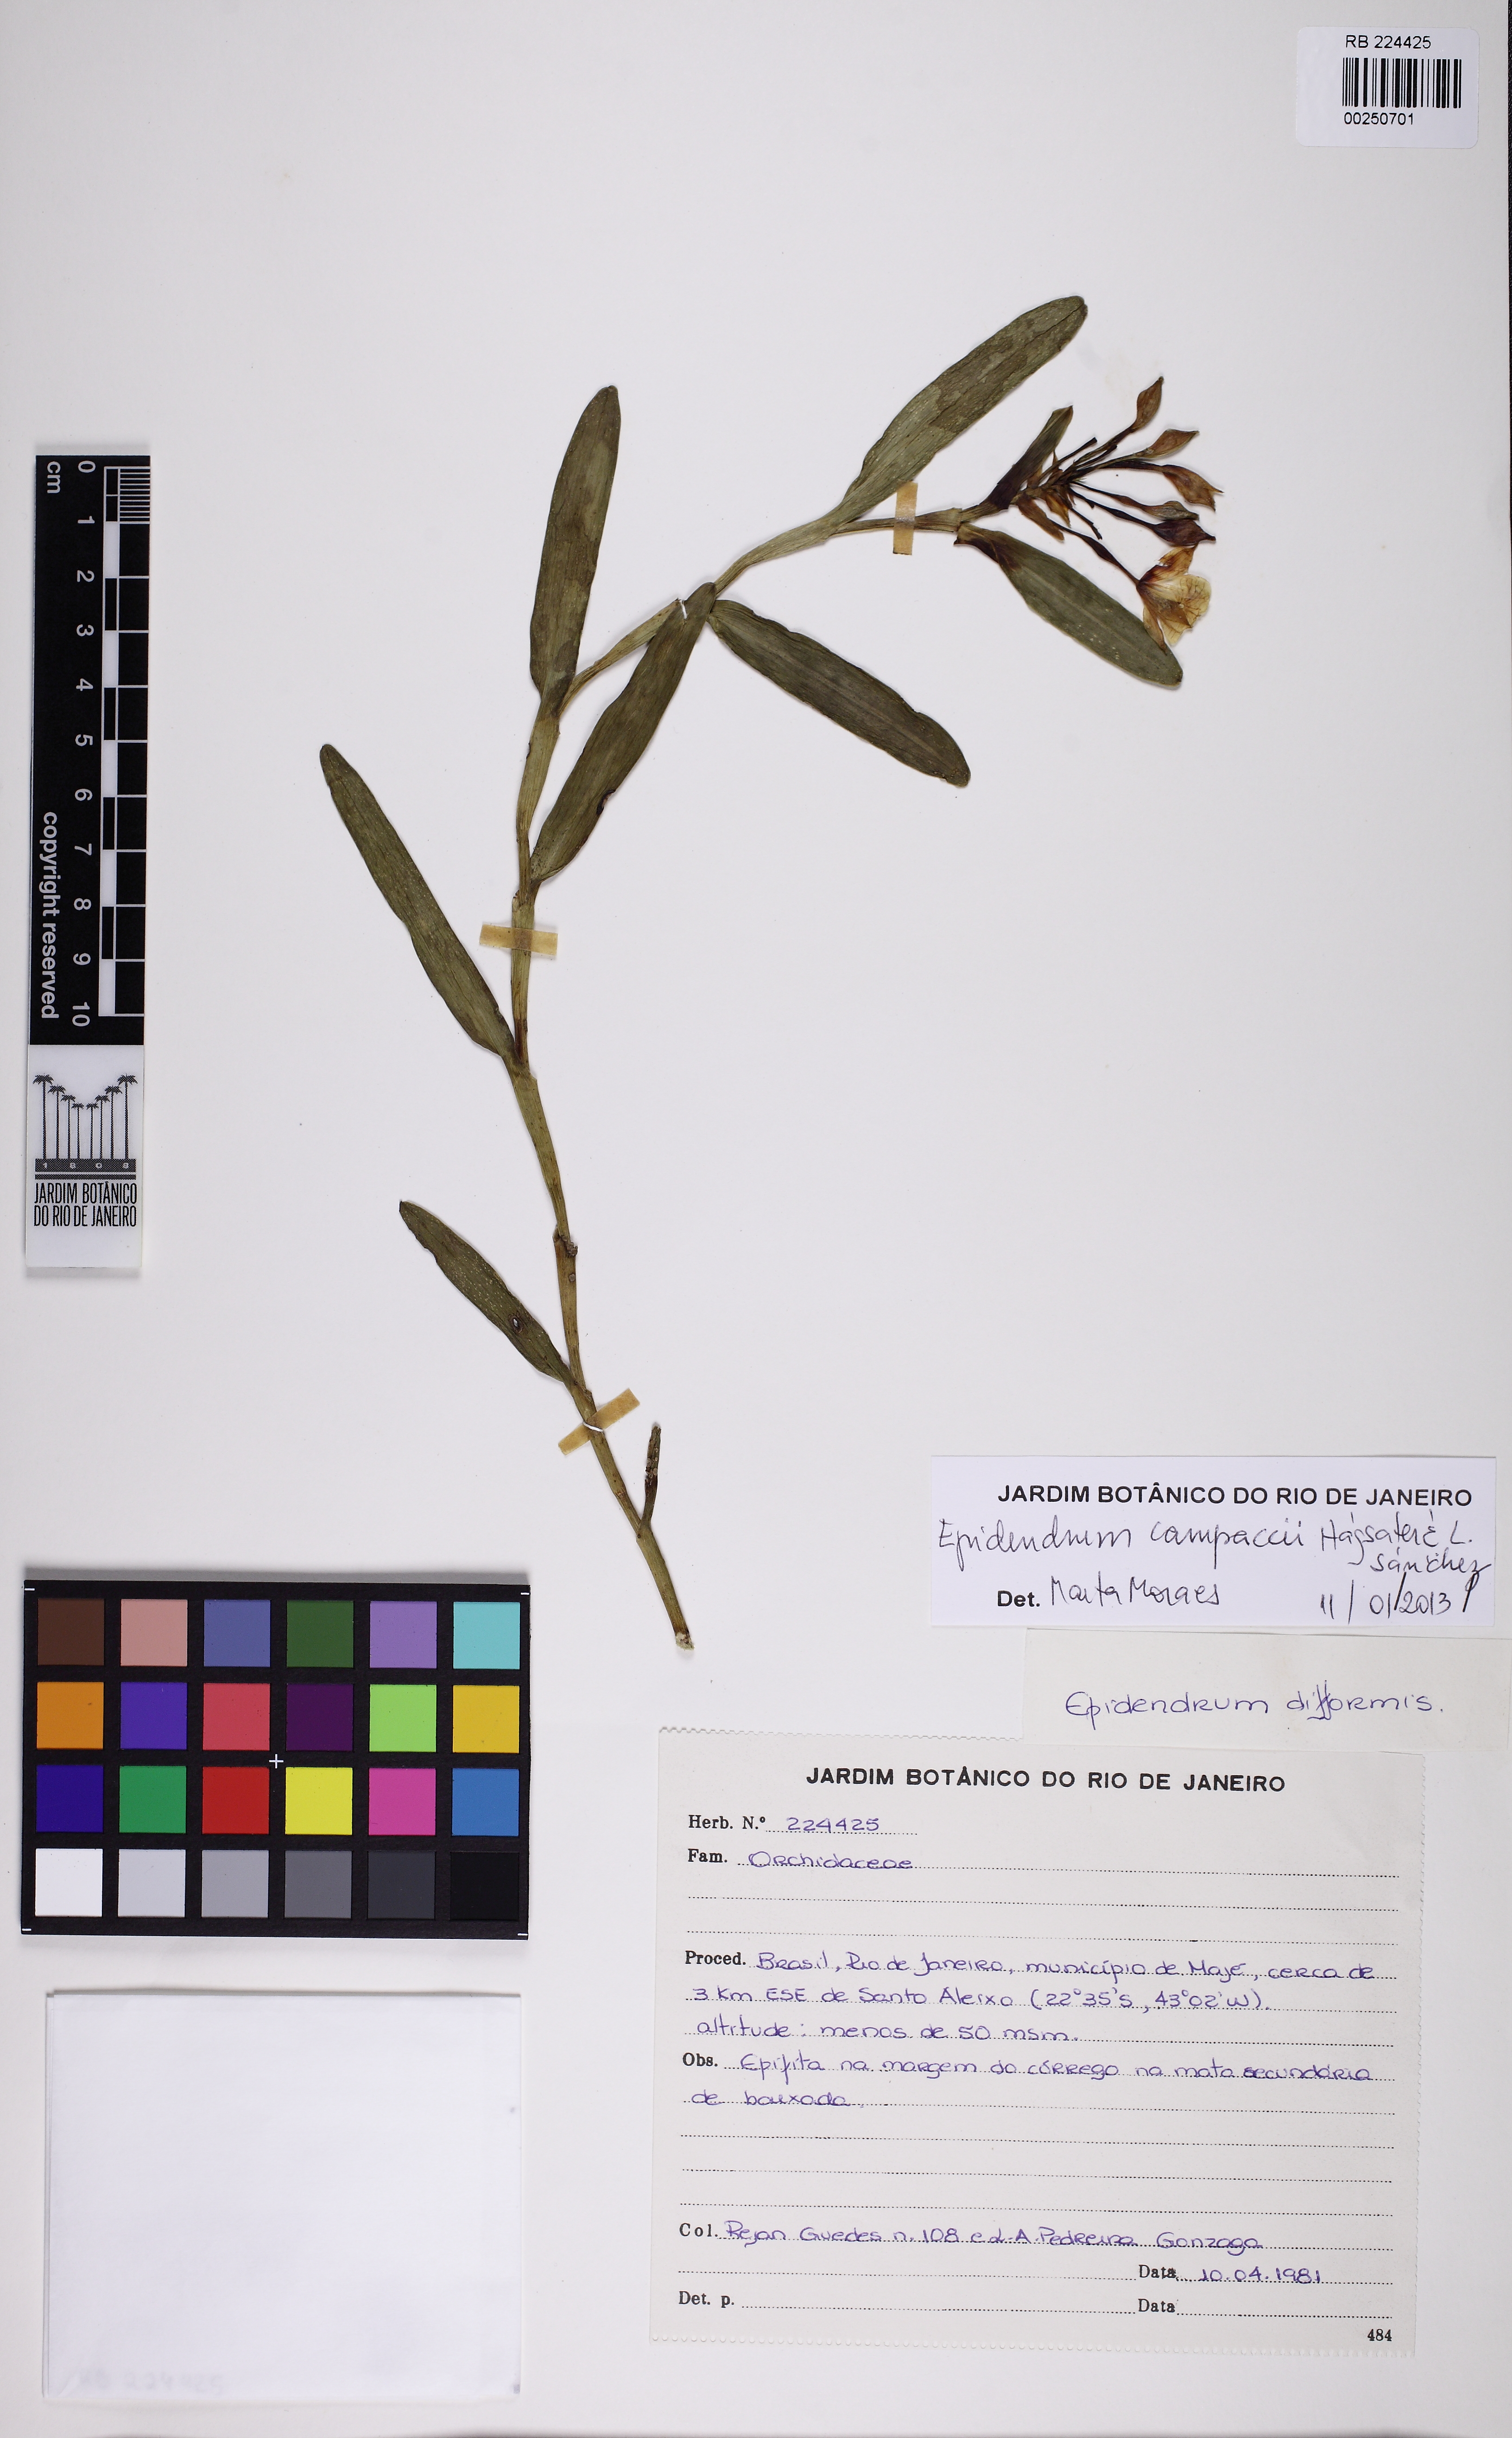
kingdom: Plantae
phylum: Tracheophyta
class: Liliopsida
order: Asparagales
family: Orchidaceae
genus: Epidendrum
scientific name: Epidendrum pseudodifforme
